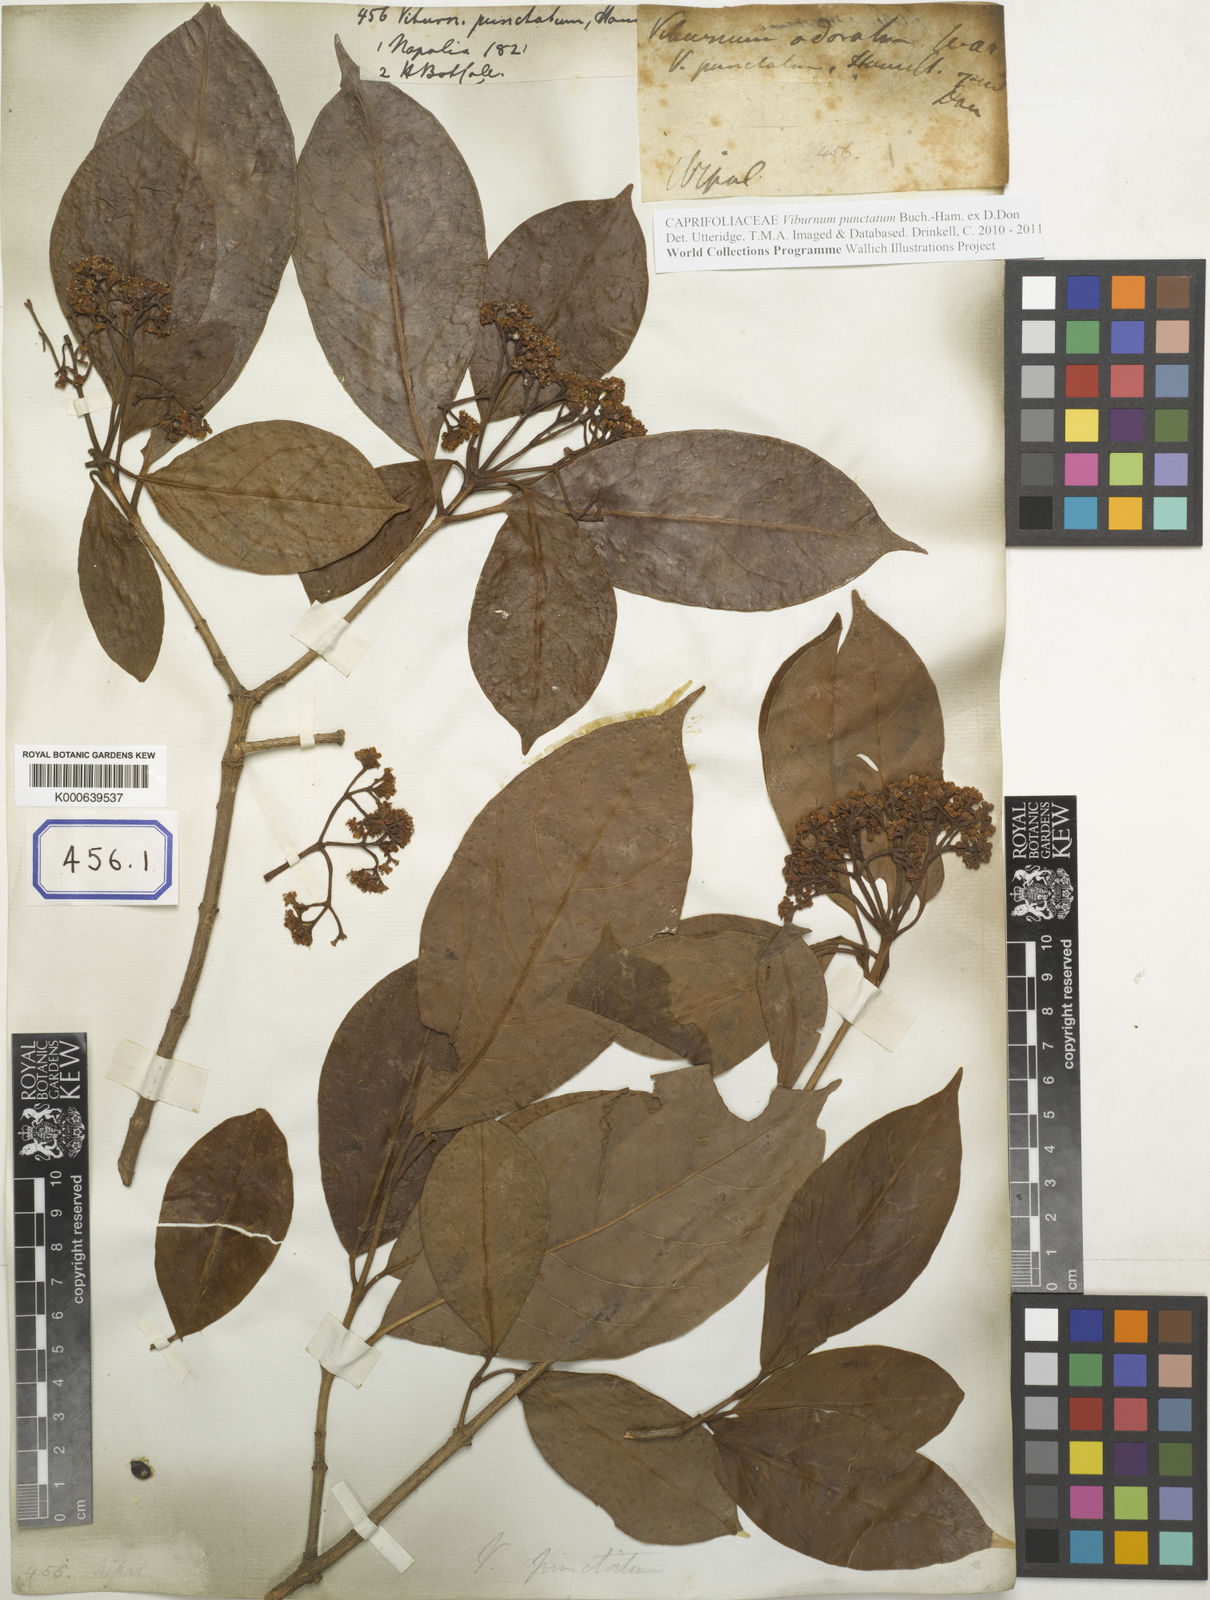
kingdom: Plantae
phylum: Tracheophyta
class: Magnoliopsida
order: Dipsacales
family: Viburnaceae
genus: Viburnum
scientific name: Viburnum punctatum
